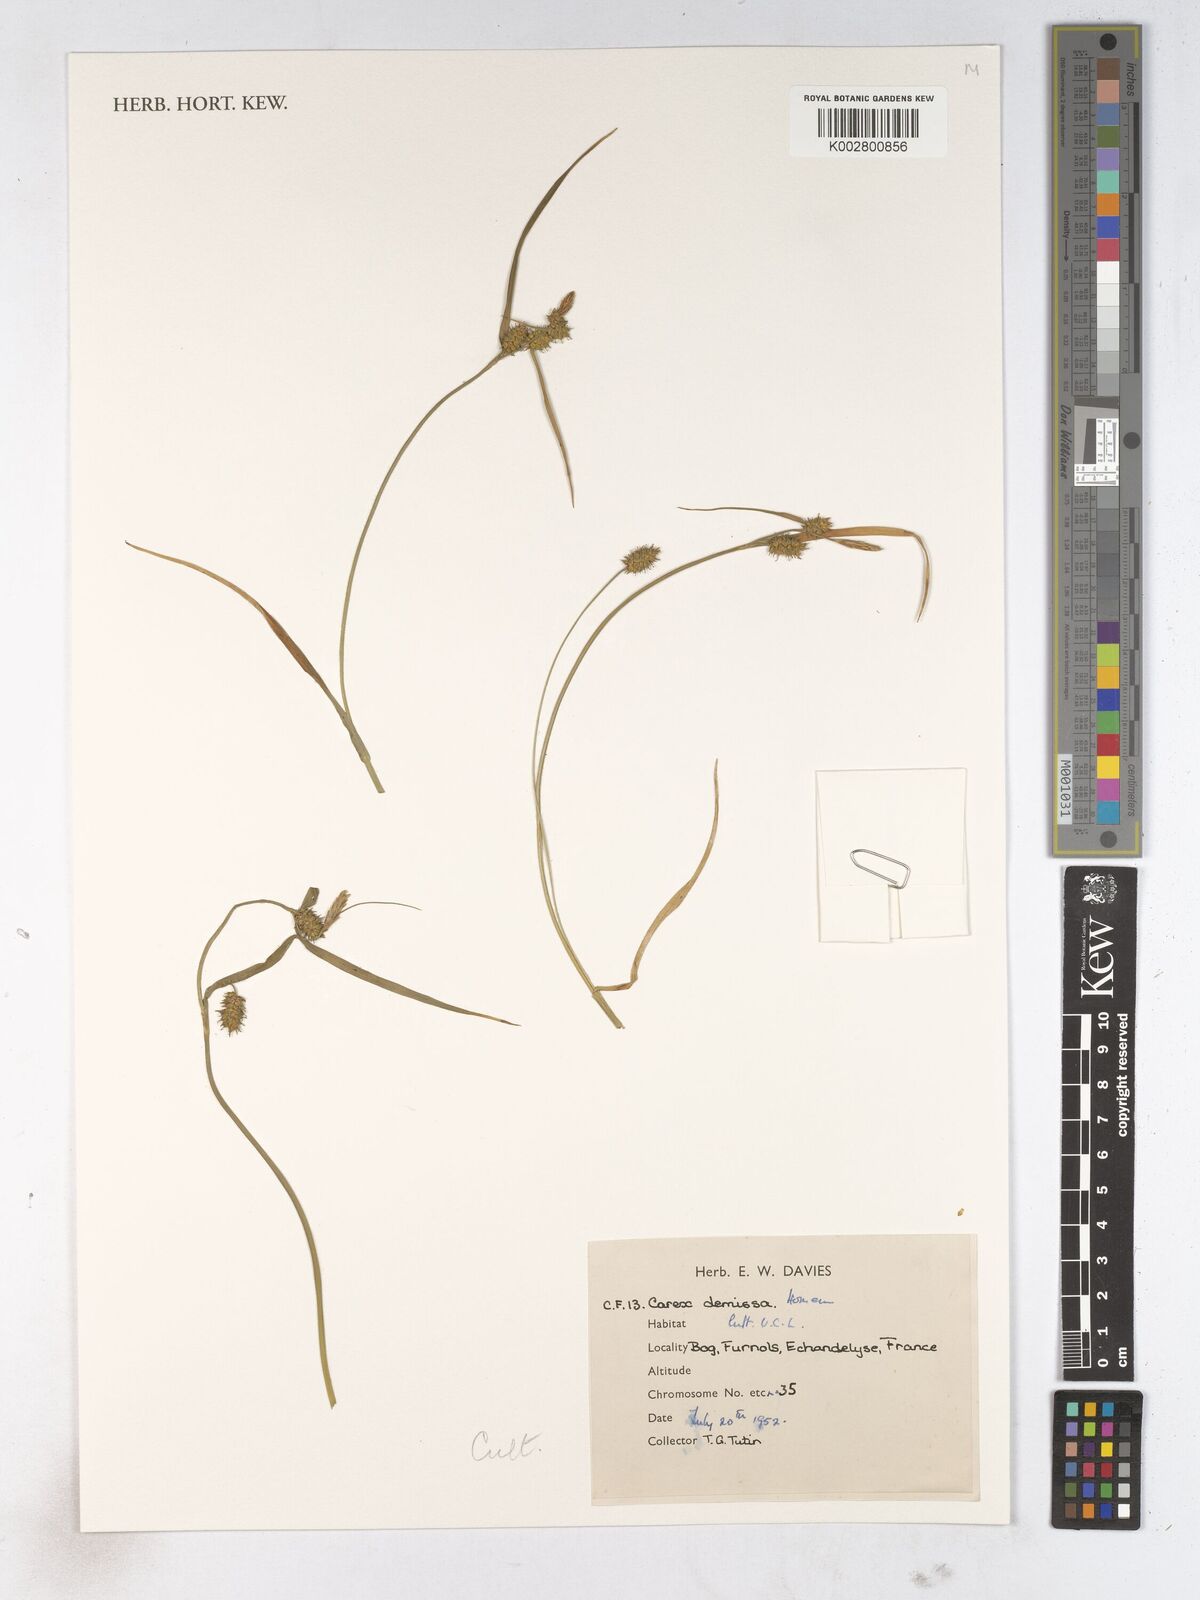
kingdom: Plantae
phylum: Tracheophyta
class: Liliopsida
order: Poales
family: Cyperaceae
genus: Carex
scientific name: Carex demissa
